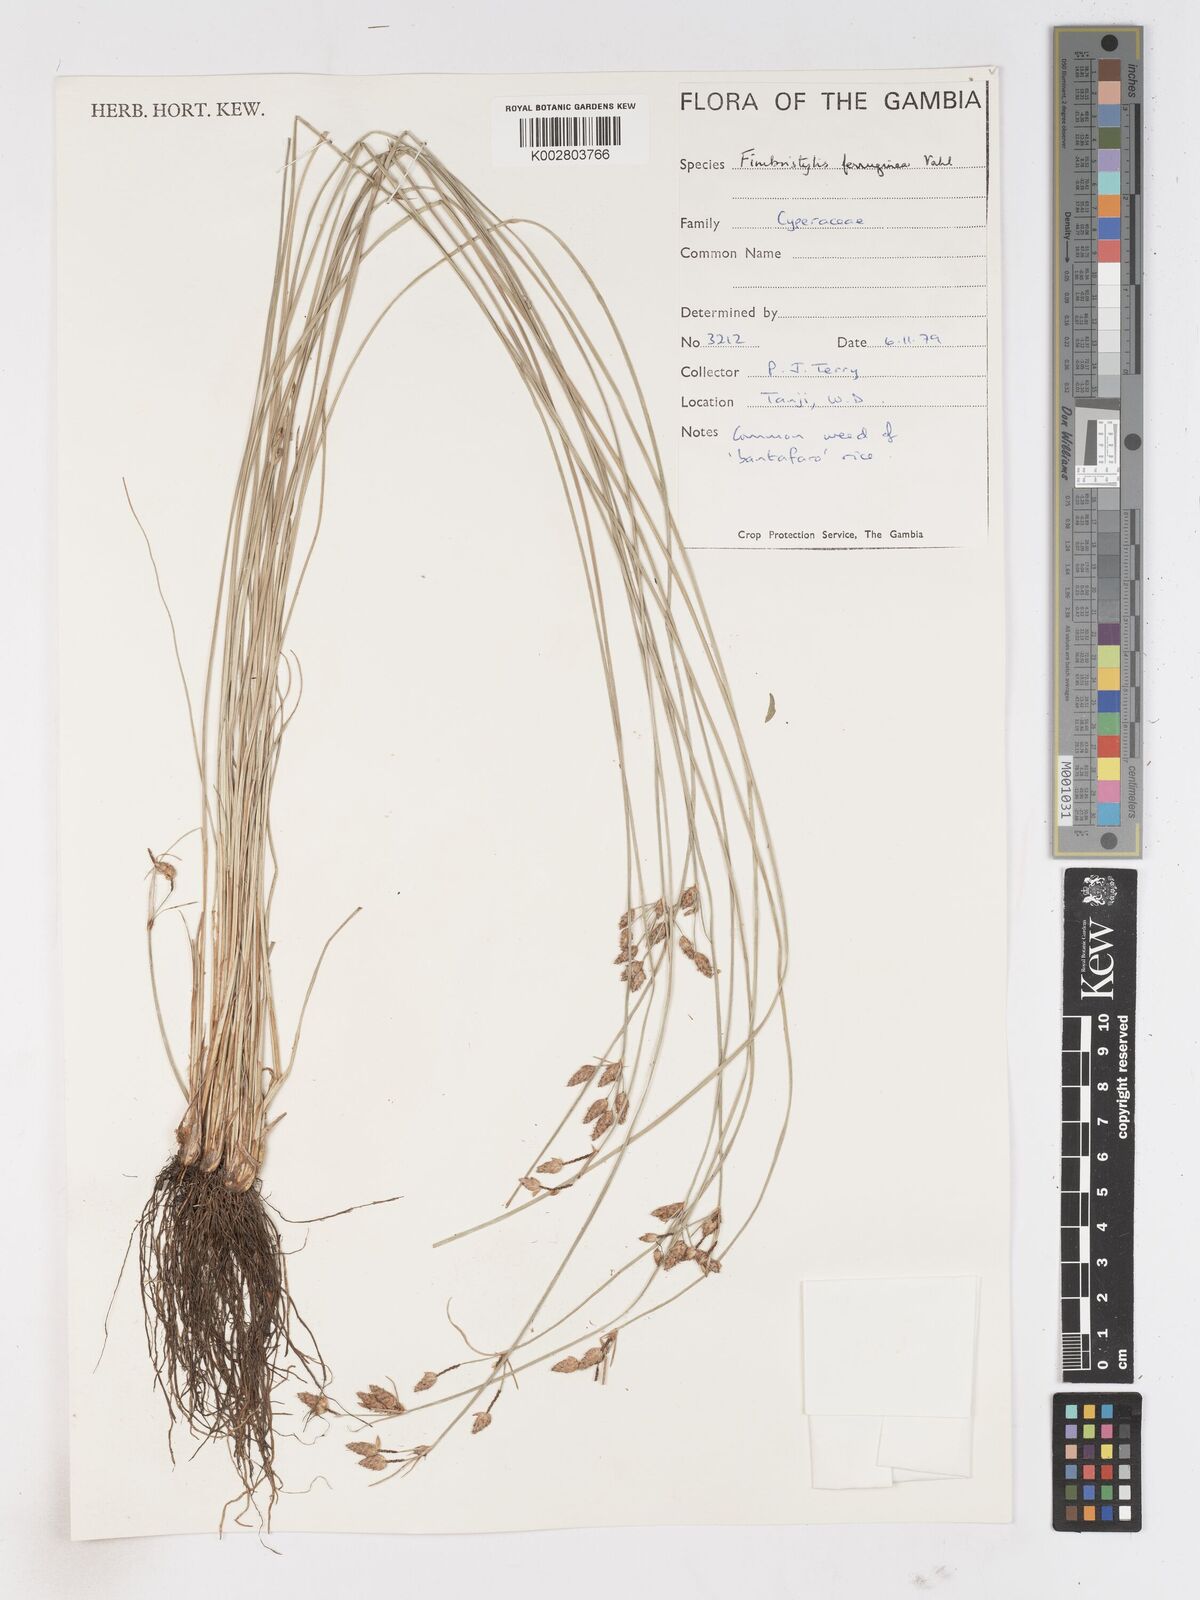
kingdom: Plantae
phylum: Tracheophyta
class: Liliopsida
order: Poales
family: Cyperaceae
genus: Fimbristylis
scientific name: Fimbristylis ferruginea
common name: West indian fimbry
